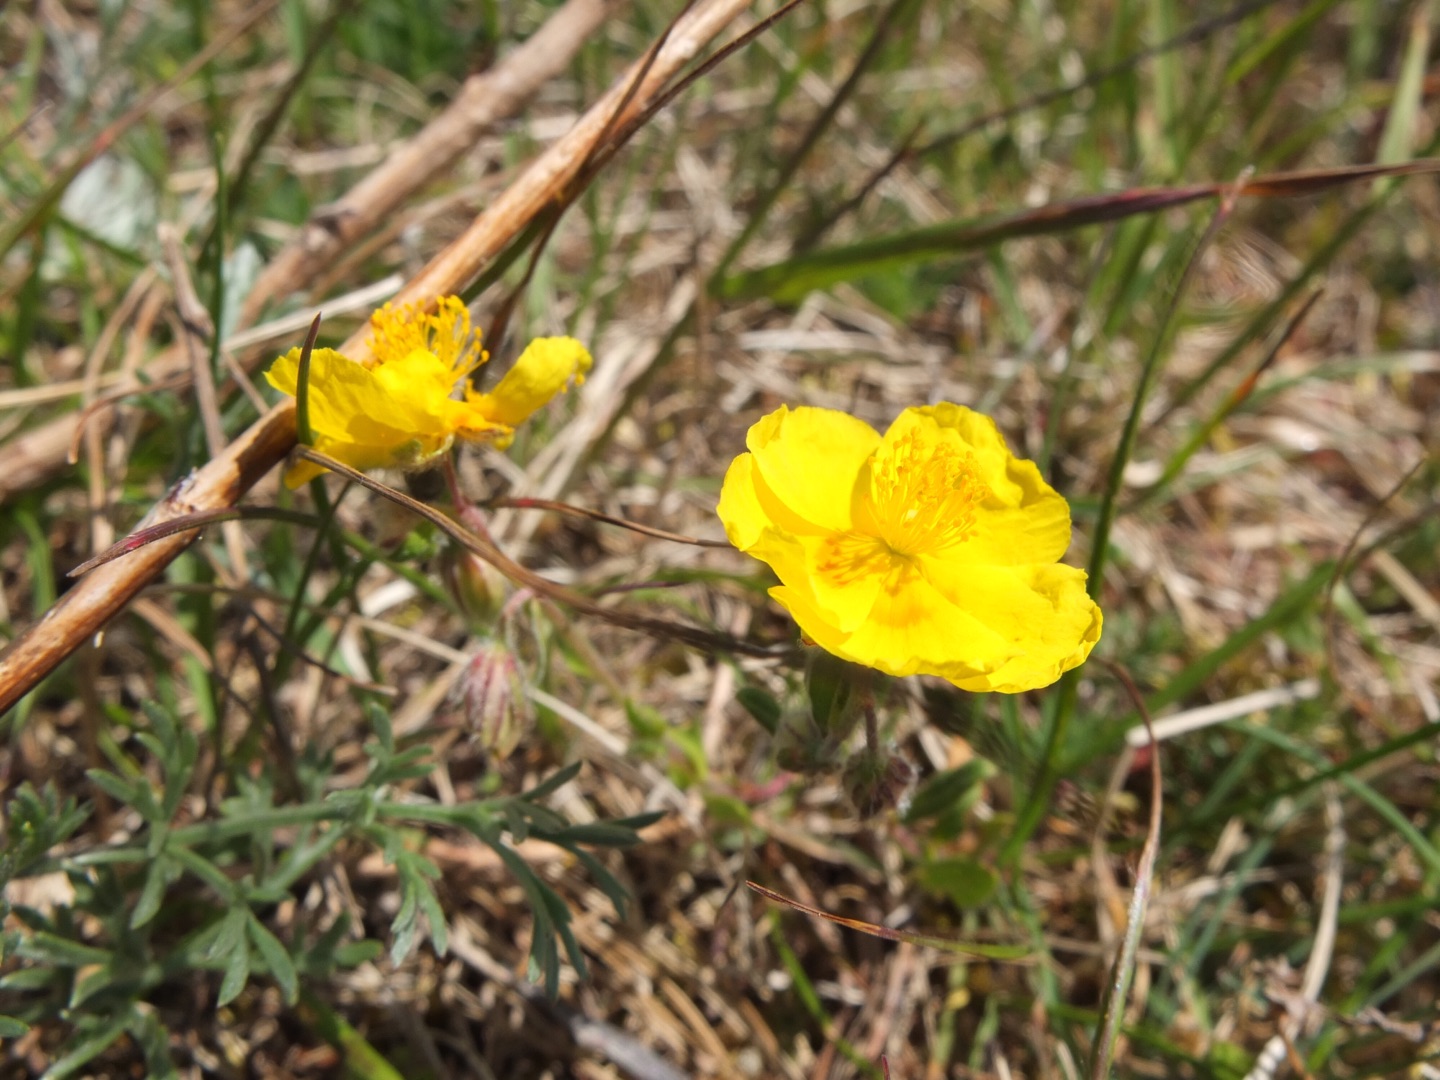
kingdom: Plantae
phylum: Tracheophyta
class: Magnoliopsida
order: Malvales
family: Cistaceae
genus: Helianthemum
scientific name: Helianthemum nummularium
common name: Soløje
